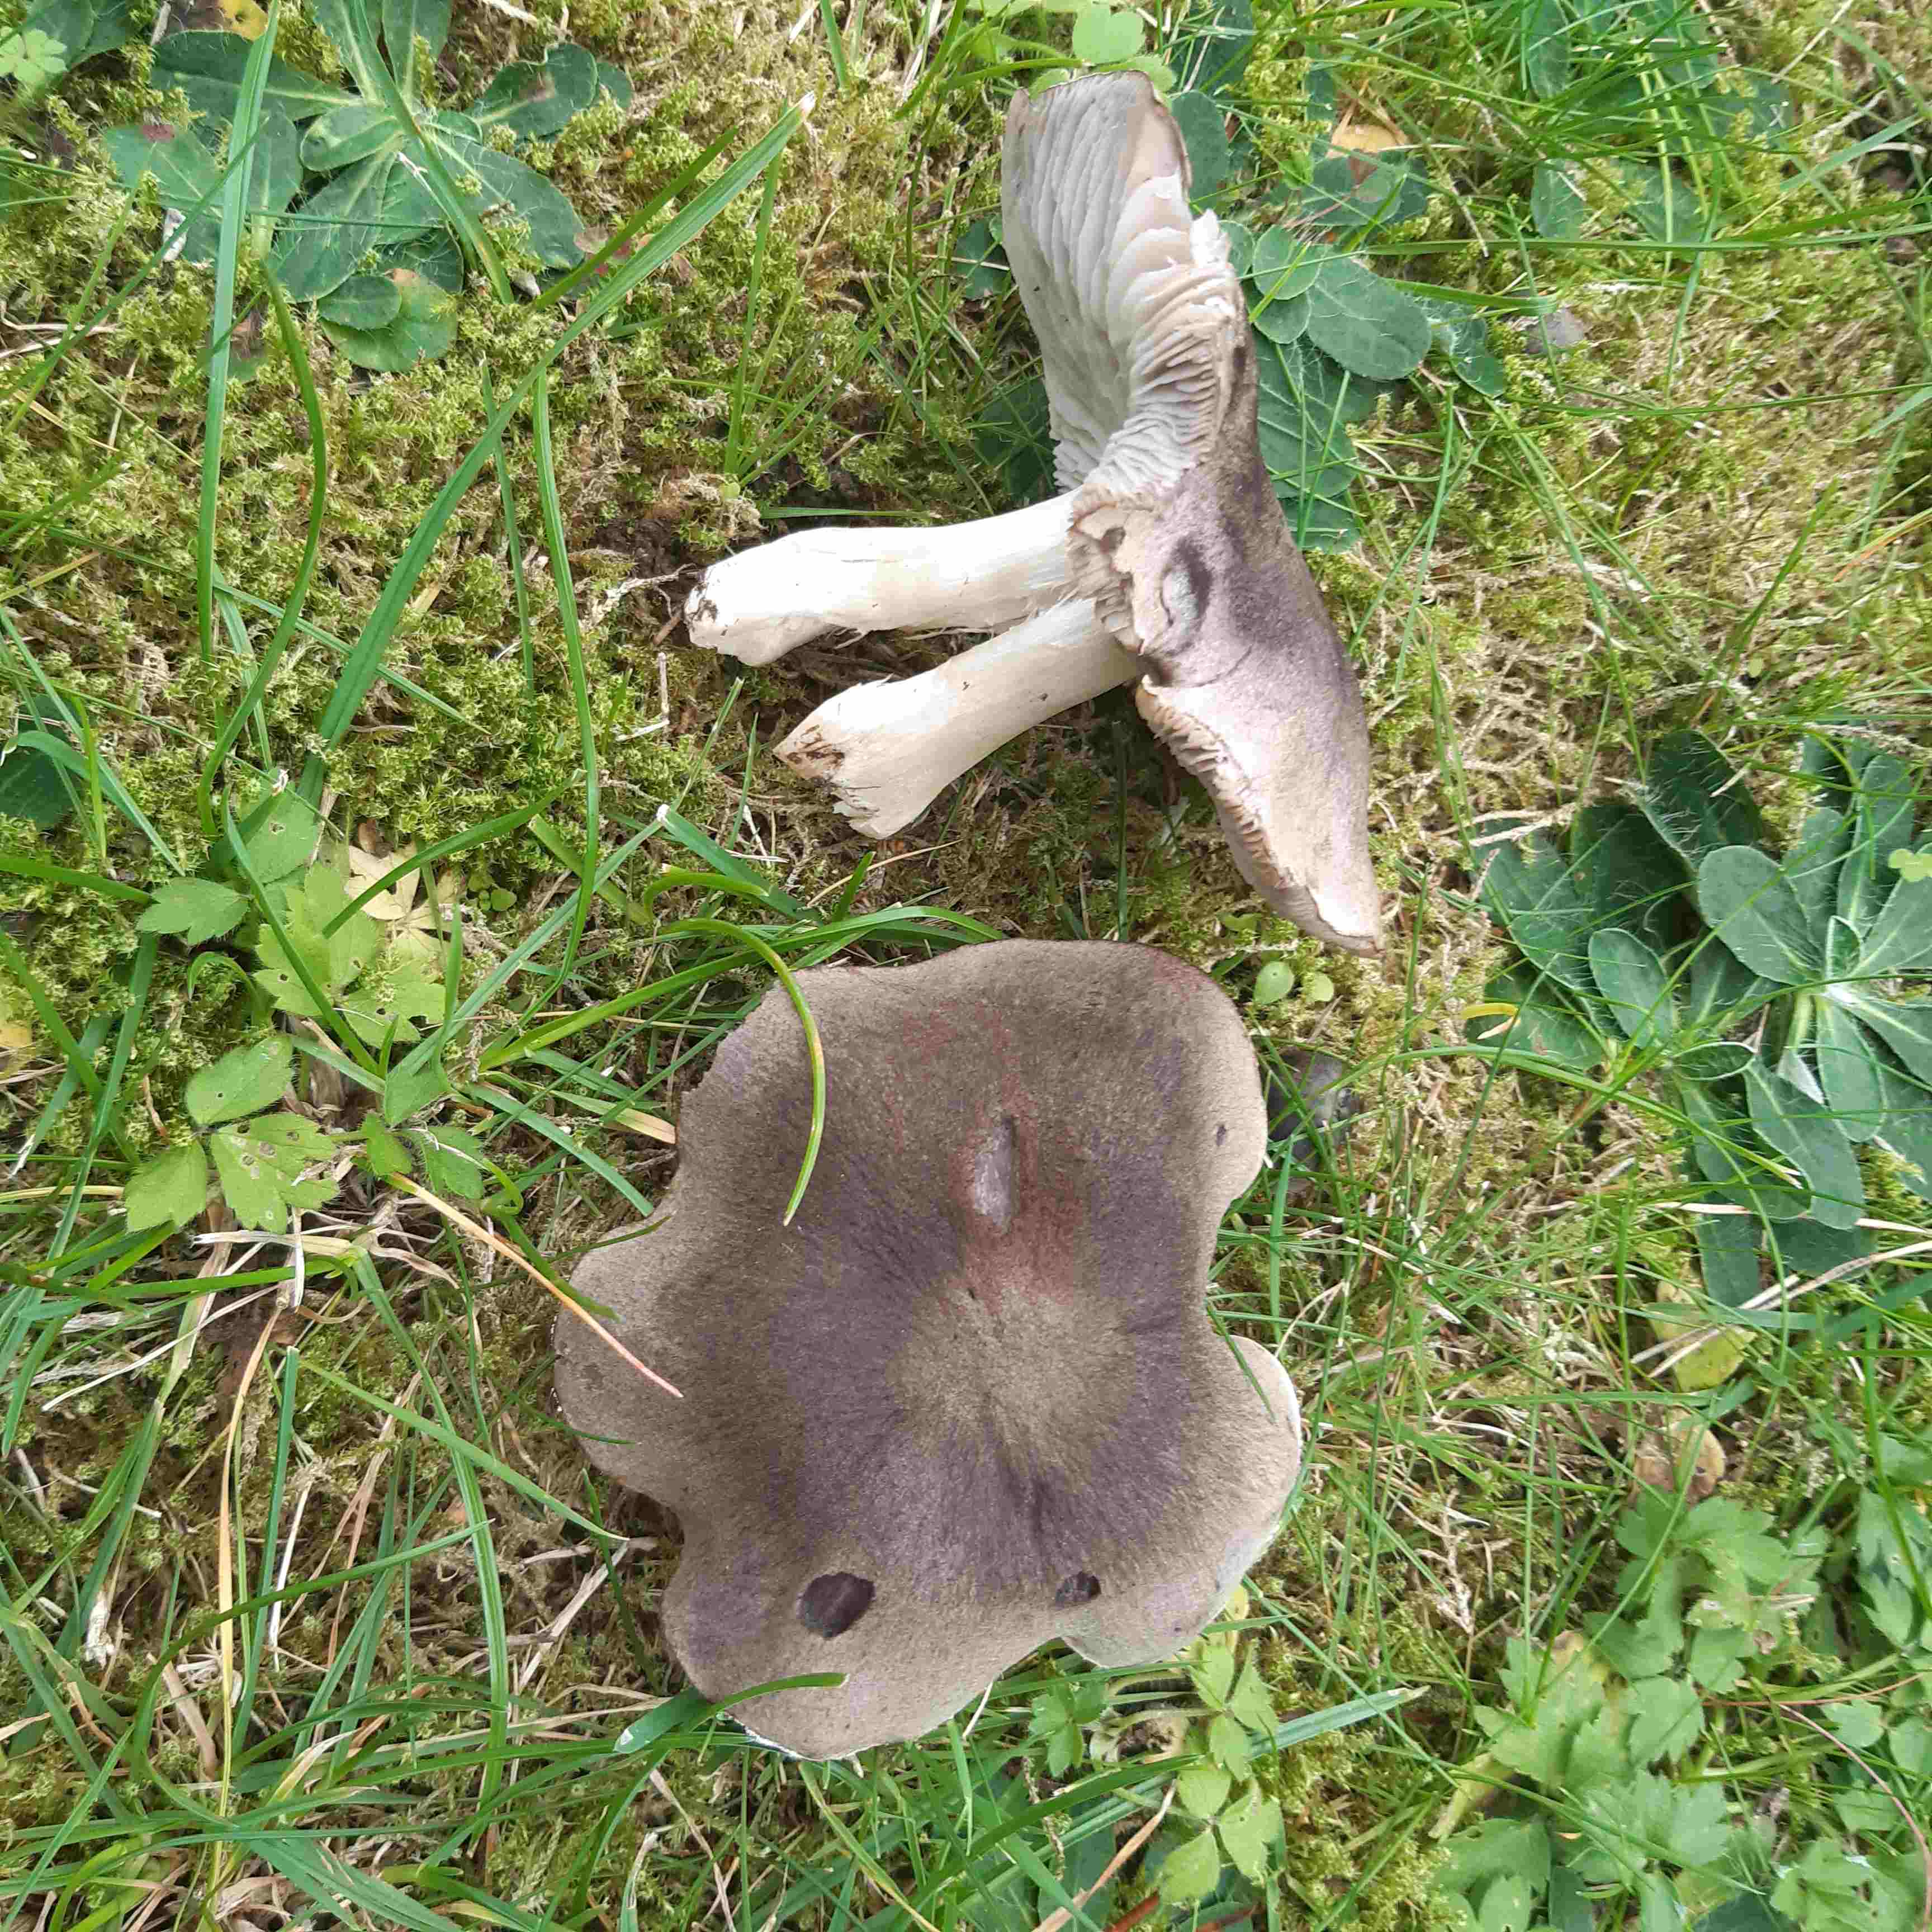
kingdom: Fungi
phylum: Basidiomycota
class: Agaricomycetes
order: Agaricales
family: Tricholomataceae
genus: Tricholoma
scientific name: Tricholoma terreum
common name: jordfarvet ridderhat
